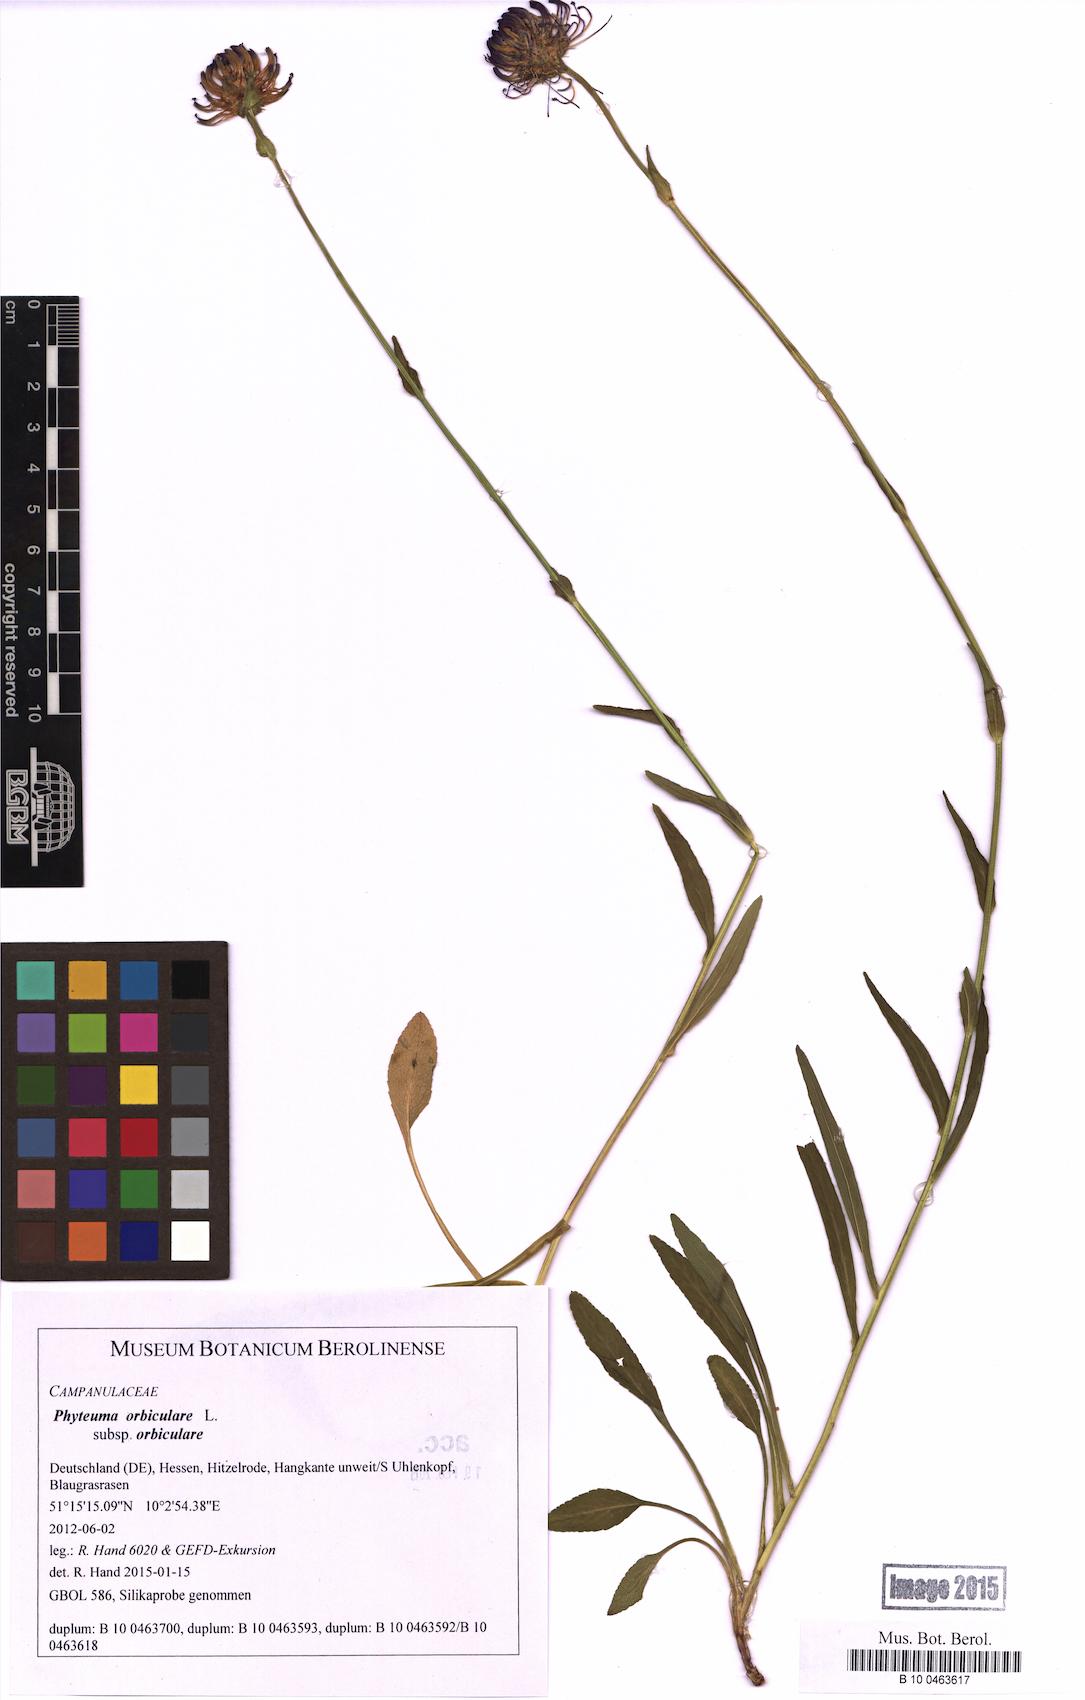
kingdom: Plantae
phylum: Tracheophyta
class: Magnoliopsida
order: Asterales
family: Campanulaceae
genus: Phyteuma
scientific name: Phyteuma orbiculare
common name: Round-headed rampion
